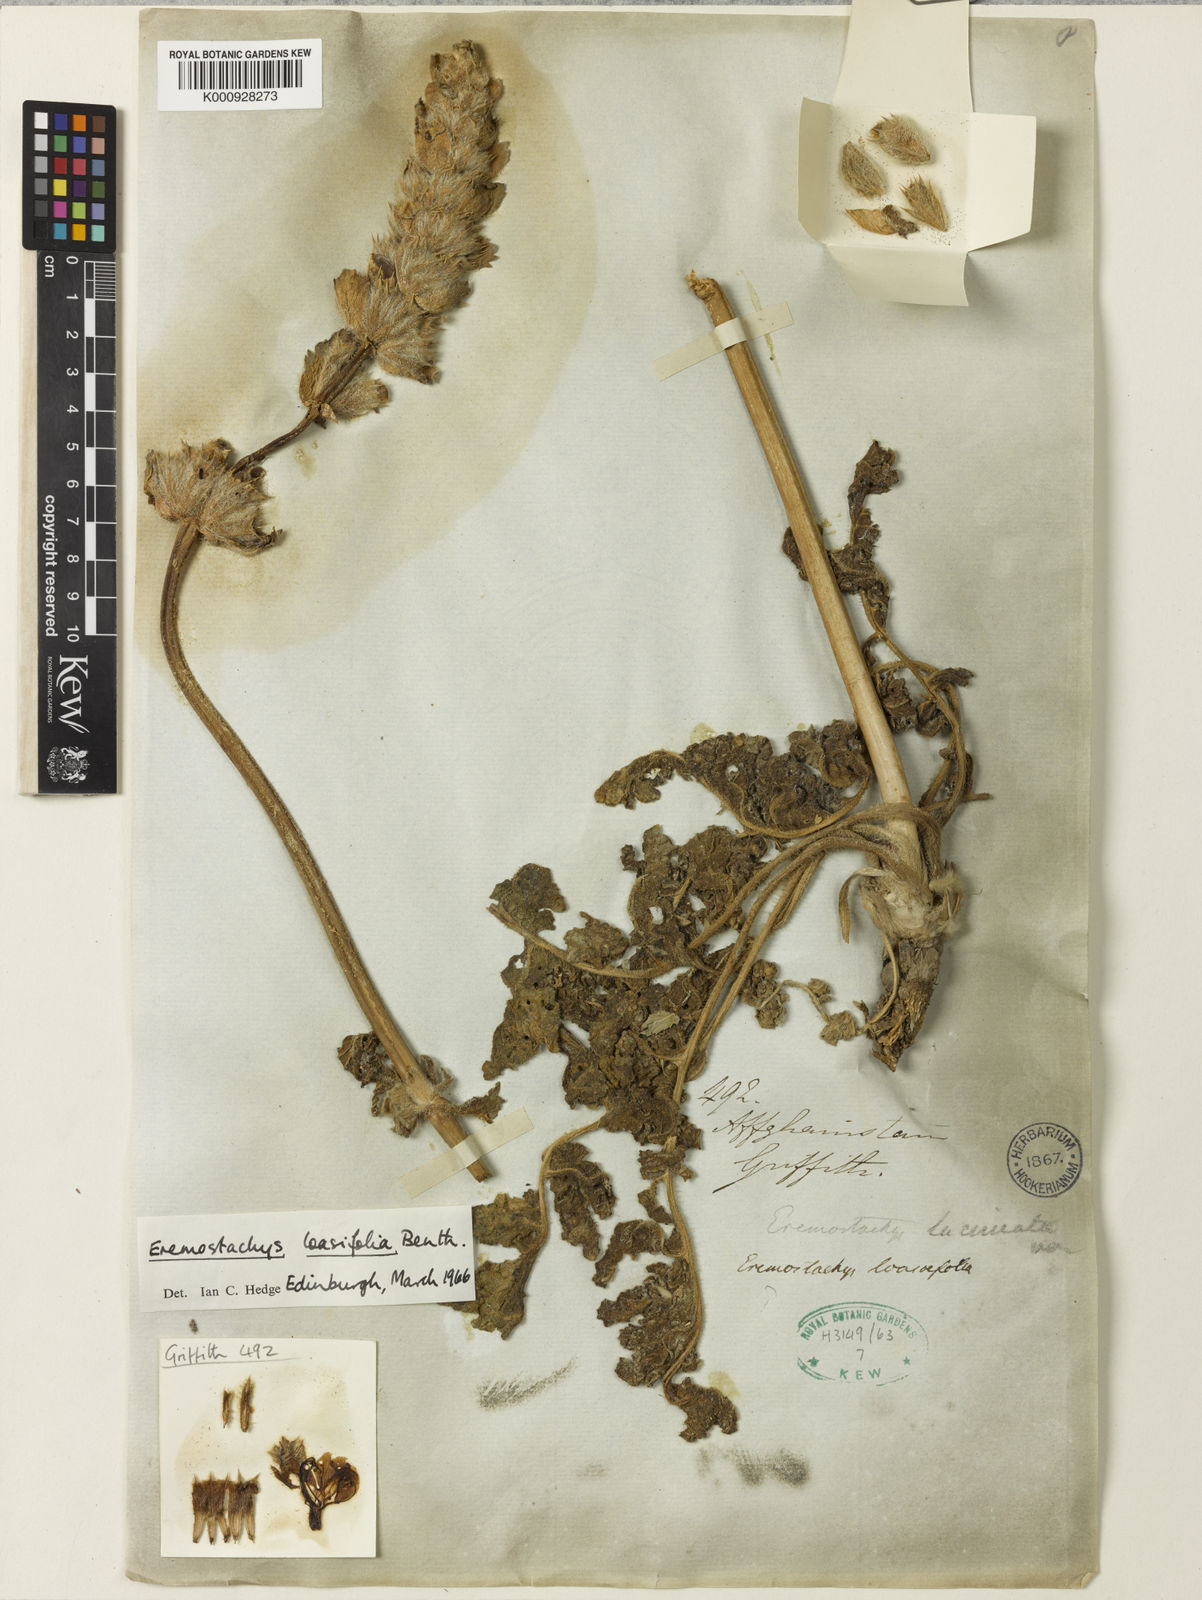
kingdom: Plantae
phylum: Tracheophyta
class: Magnoliopsida
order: Lamiales
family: Lamiaceae
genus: Phlomoides
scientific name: Phlomoides loasifolia
